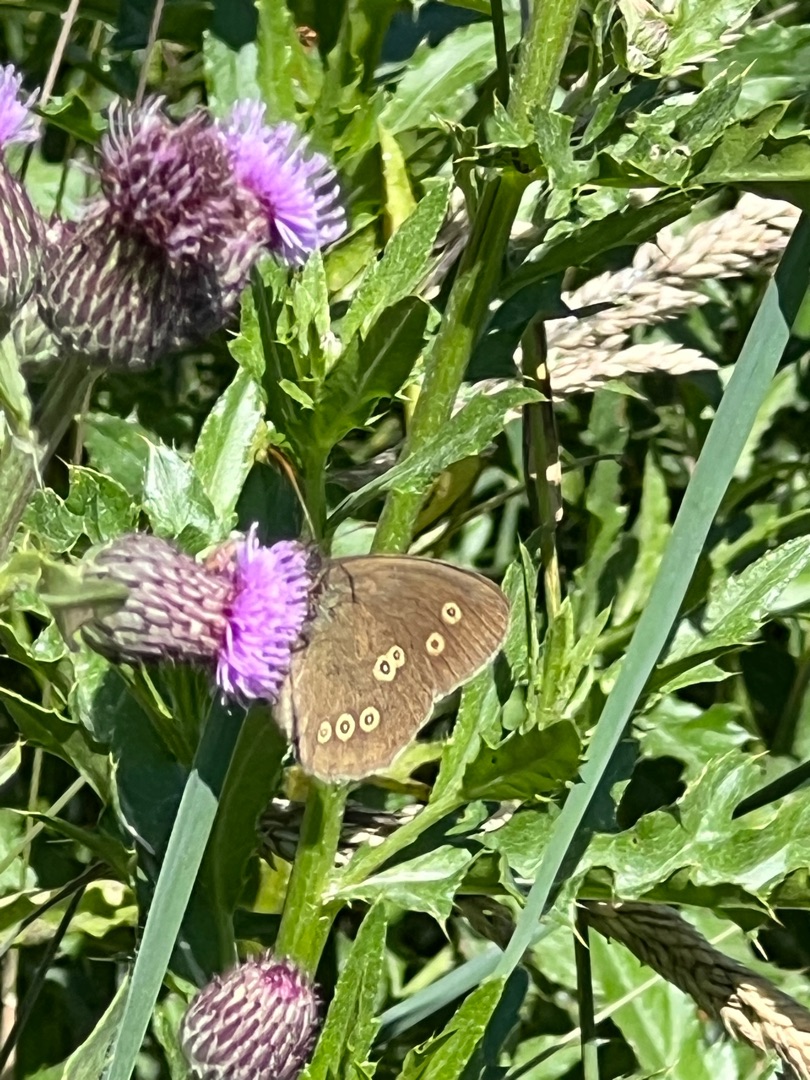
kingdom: Animalia
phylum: Arthropoda
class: Insecta
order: Lepidoptera
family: Nymphalidae
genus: Aphantopus
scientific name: Aphantopus hyperantus
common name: Engrandøje
